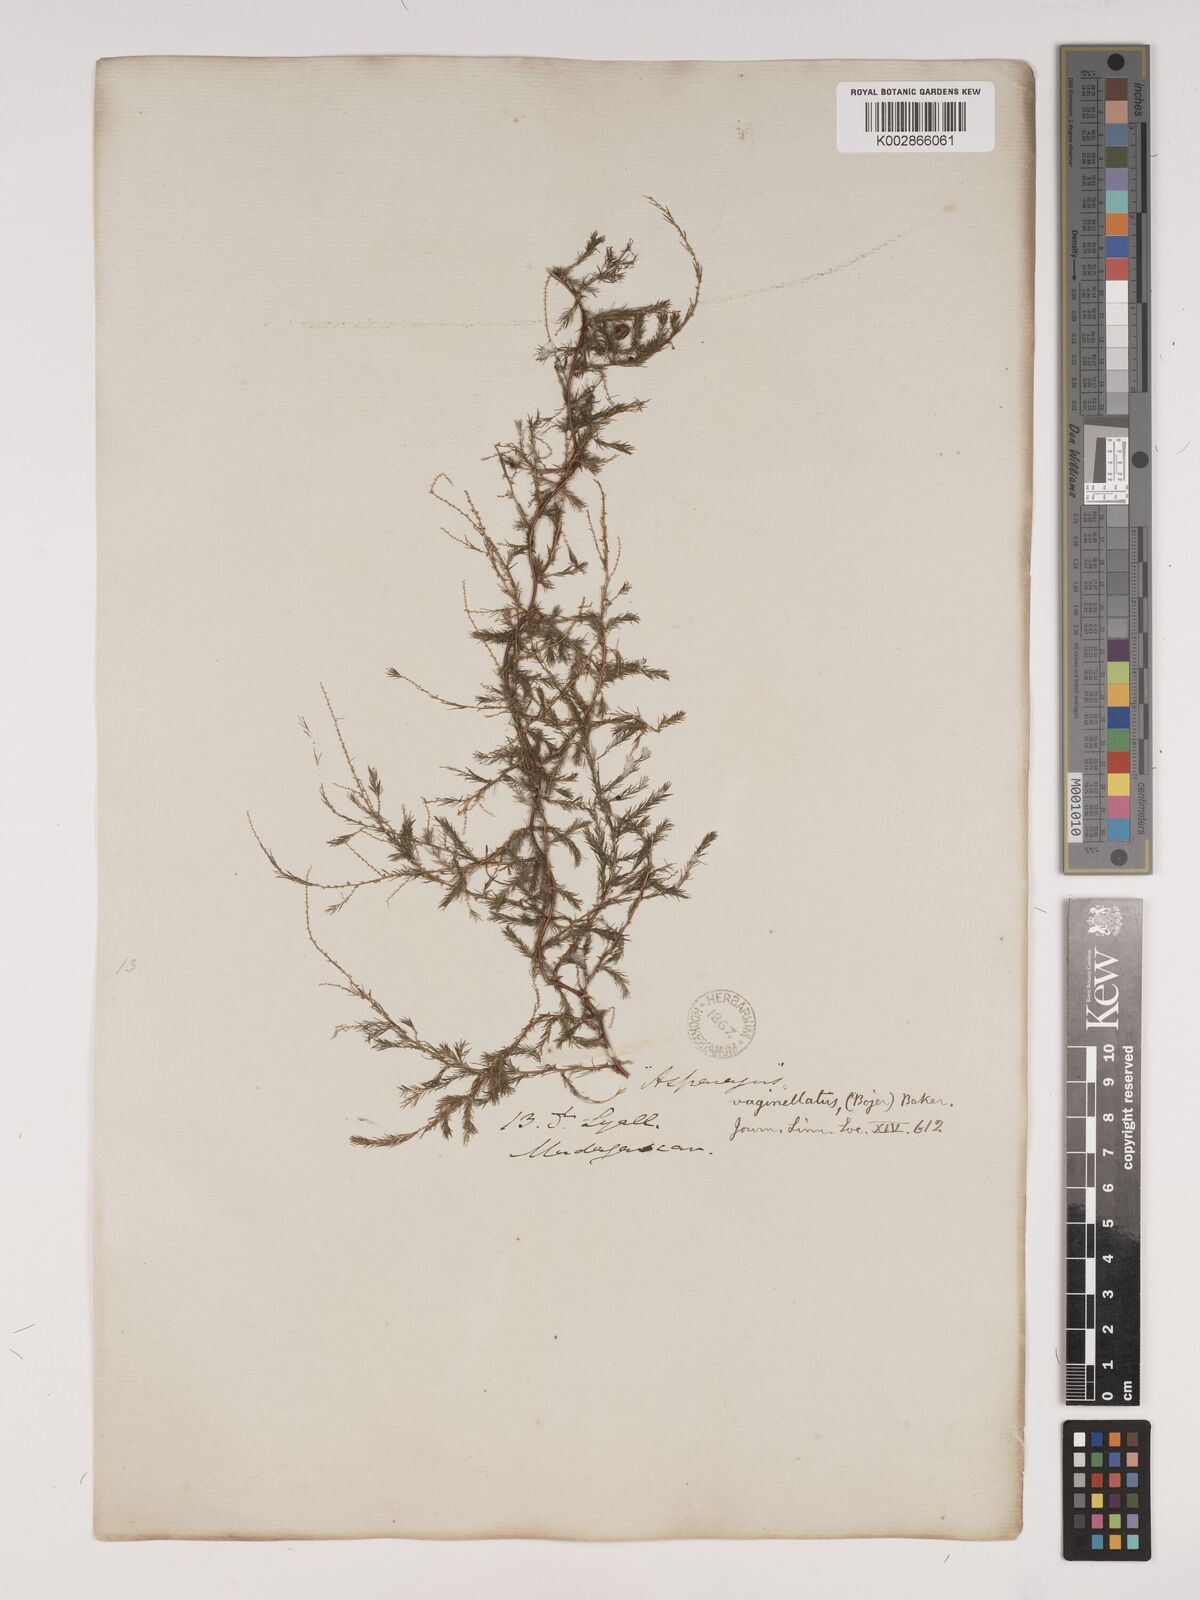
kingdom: Plantae
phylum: Tracheophyta
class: Liliopsida
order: Asparagales
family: Asparagaceae
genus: Asparagus
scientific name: Asparagus vaginellatus
